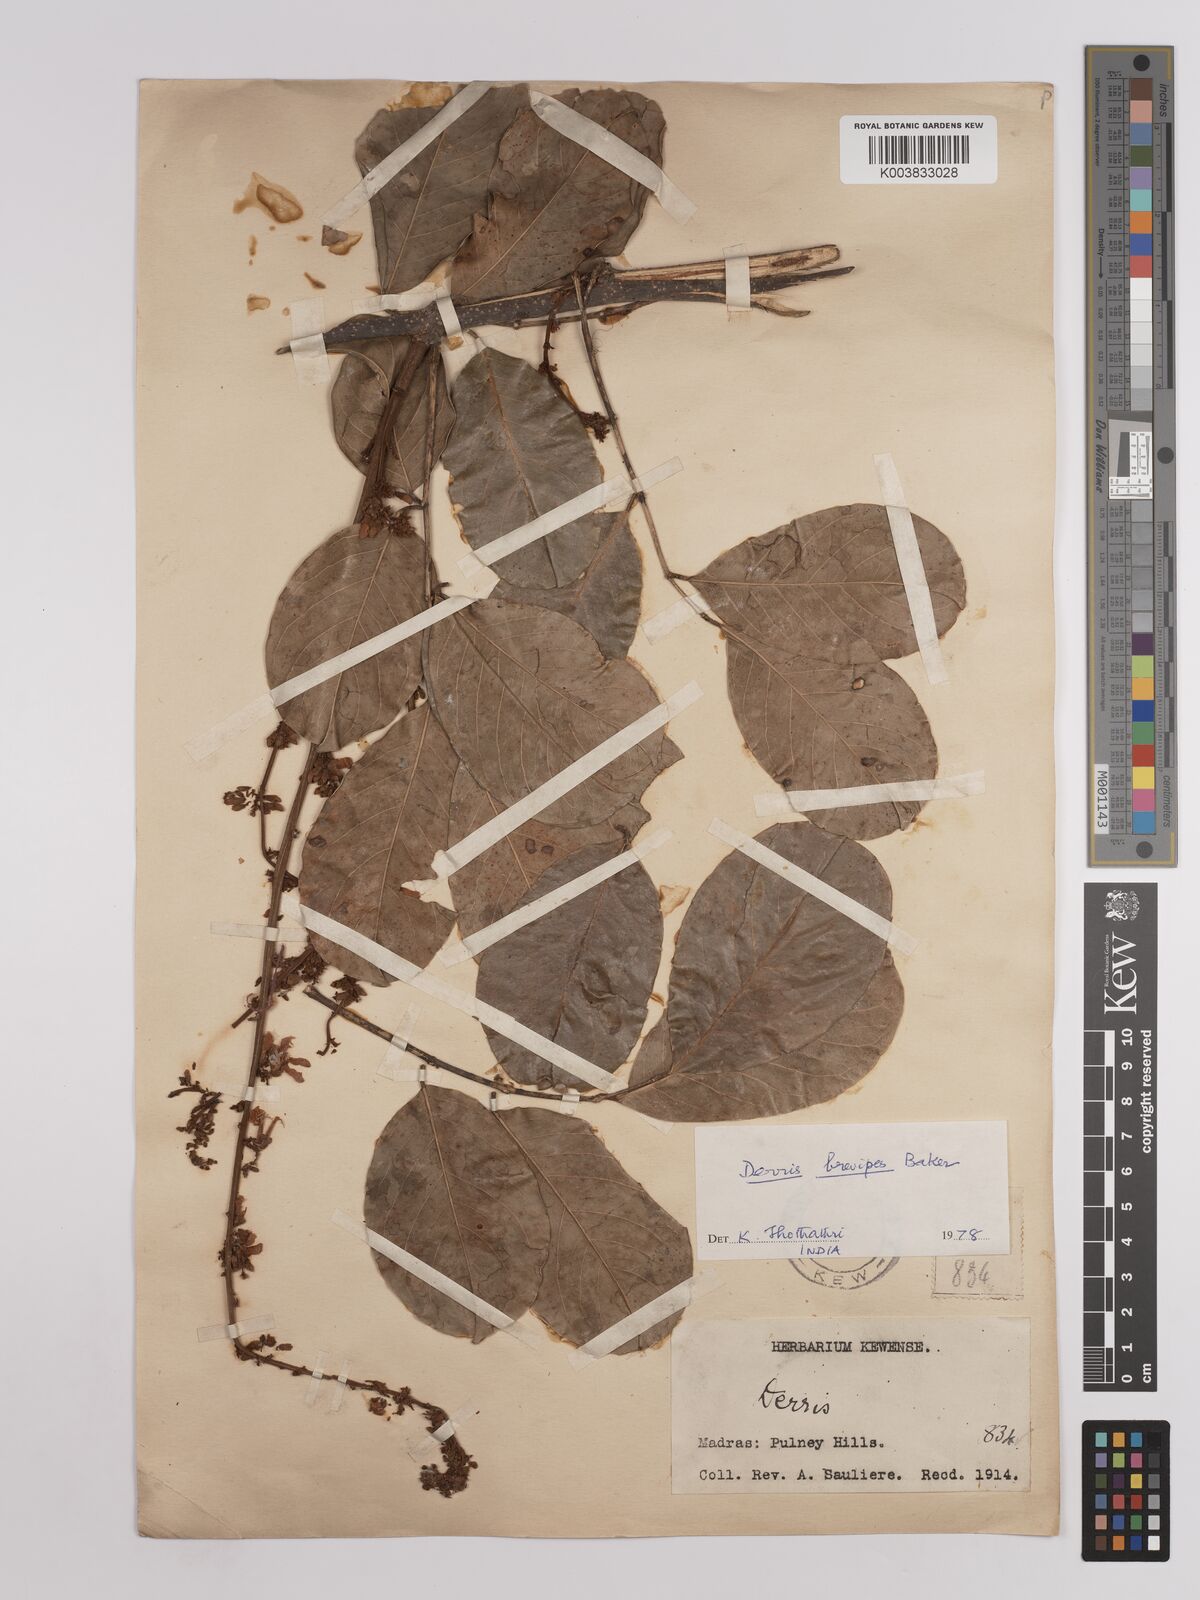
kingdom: Plantae
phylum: Tracheophyta
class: Magnoliopsida
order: Fabales
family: Fabaceae
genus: Derris
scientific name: Derris brevipes
